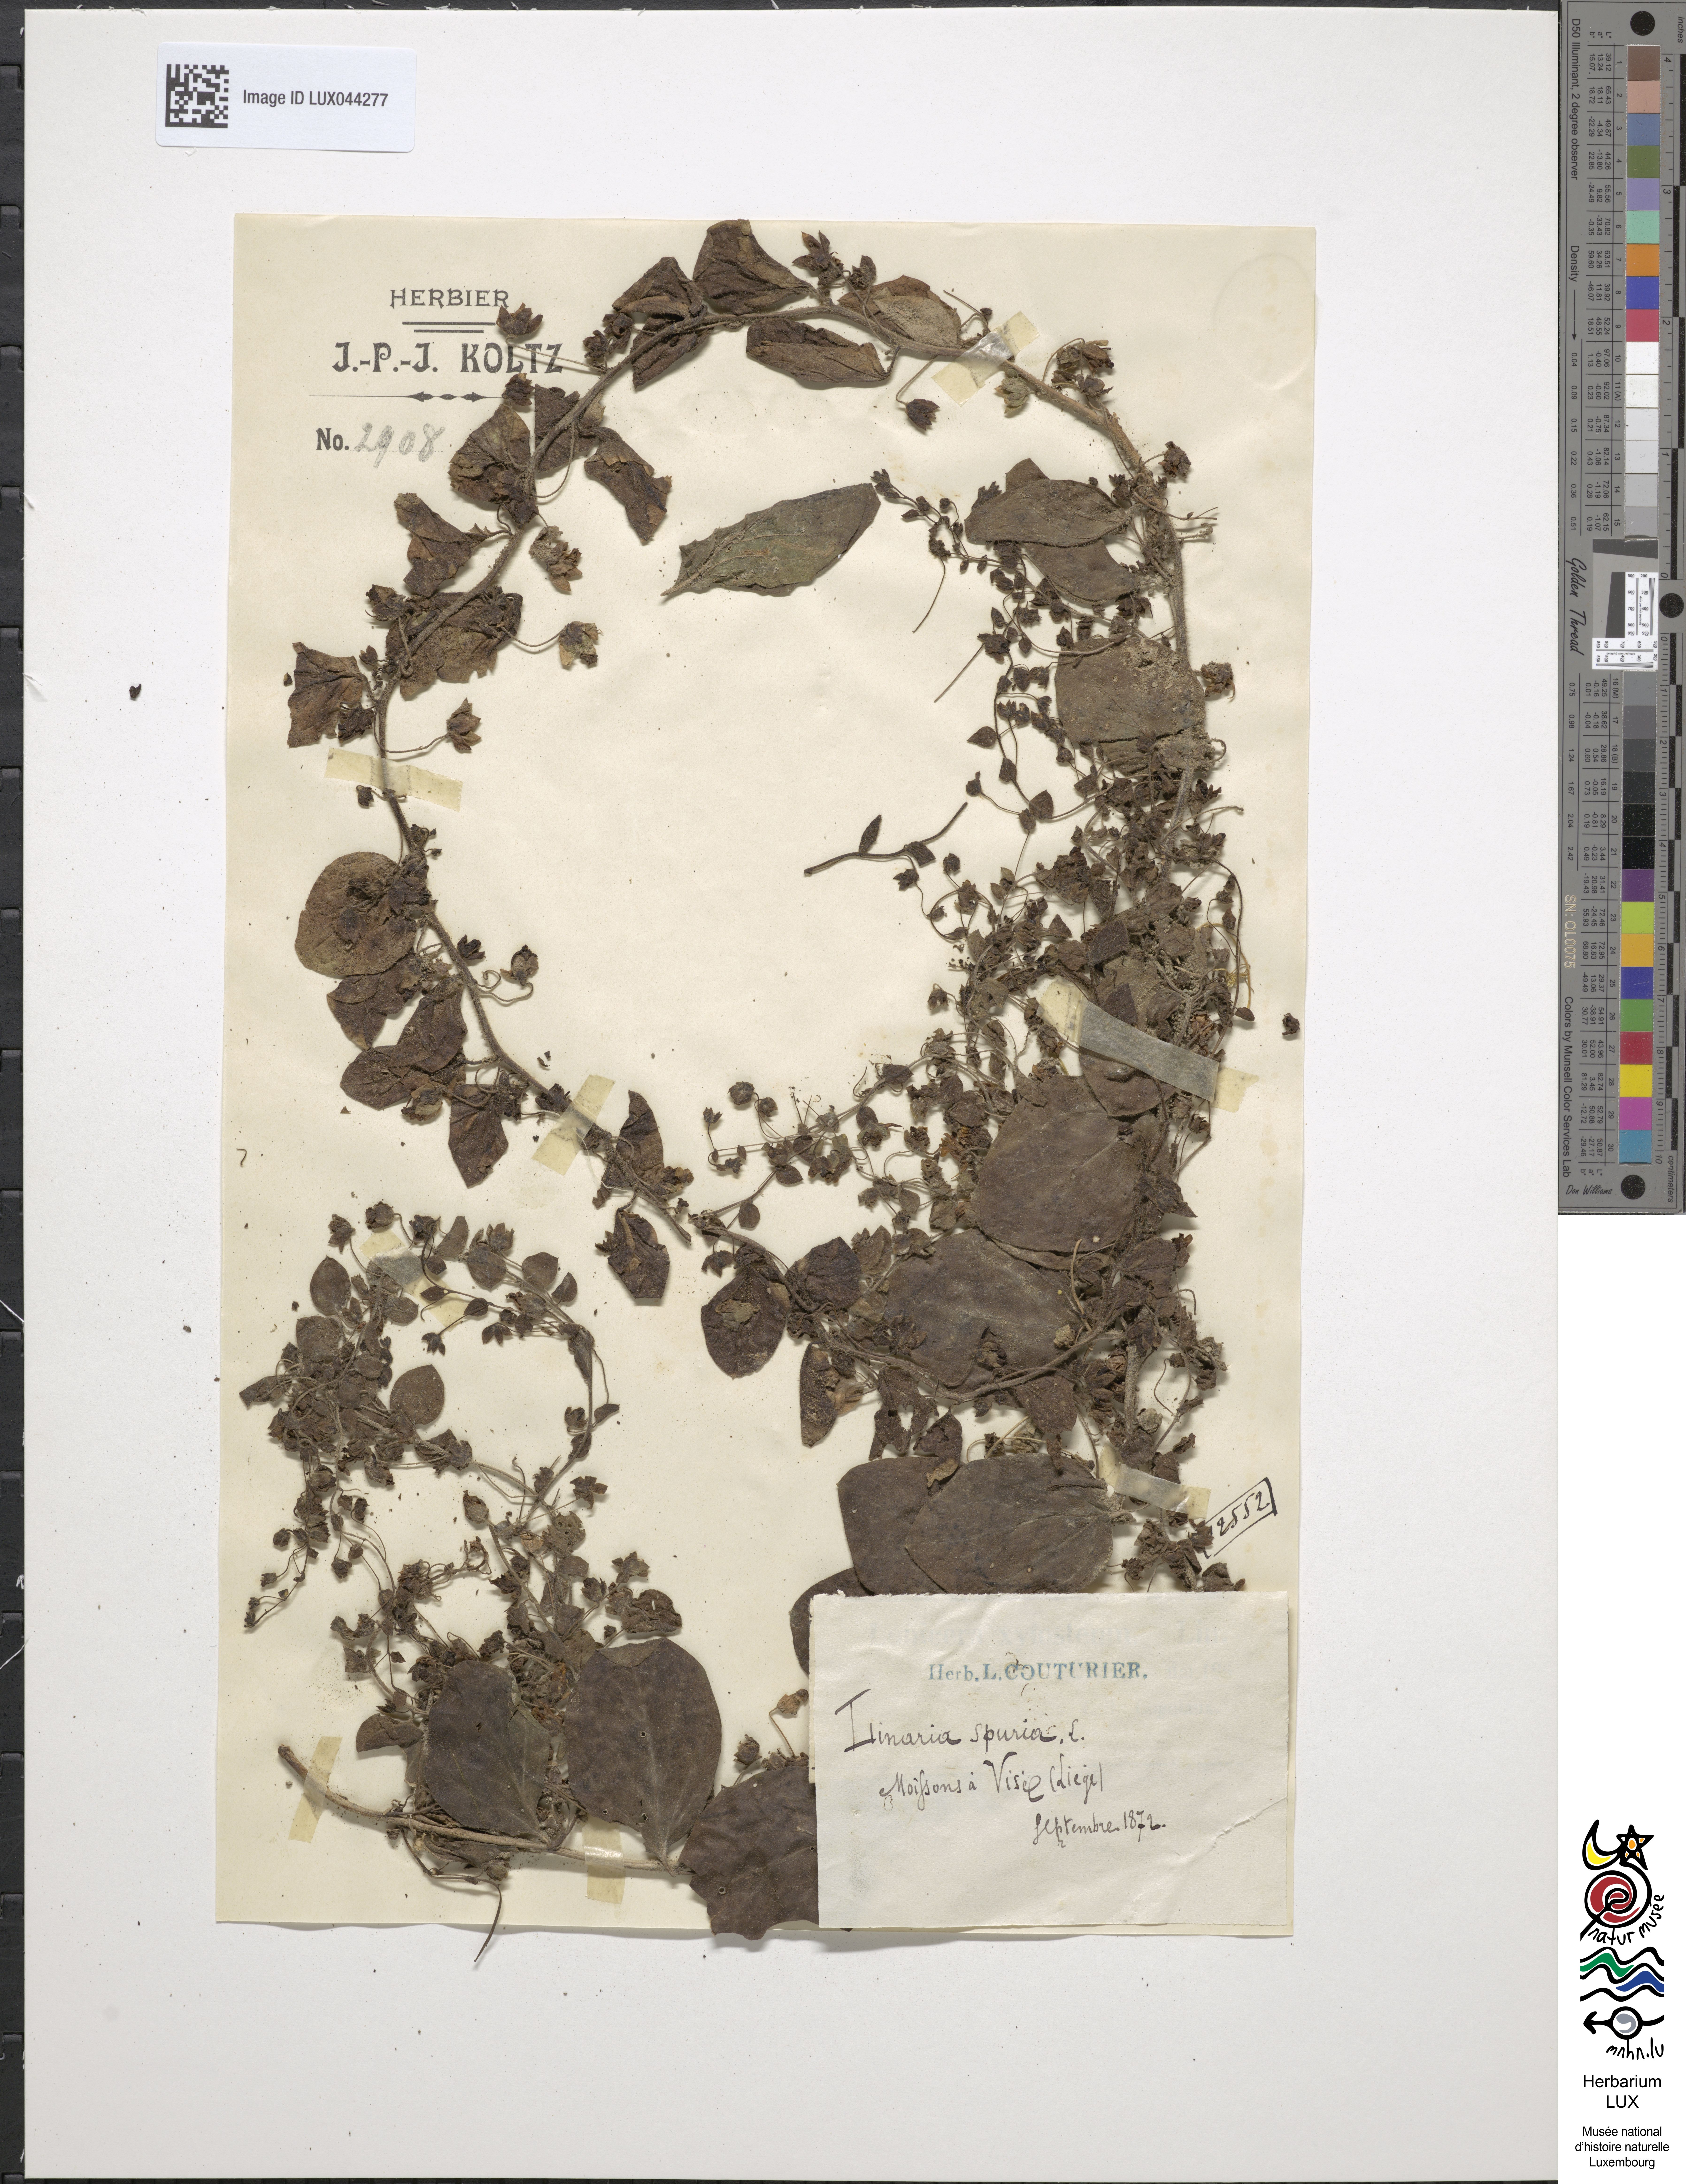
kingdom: Plantae
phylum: Tracheophyta
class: Magnoliopsida
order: Lamiales
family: Plantaginaceae
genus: Kickxia
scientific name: Kickxia spuria
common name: Round-leaved fluellen
